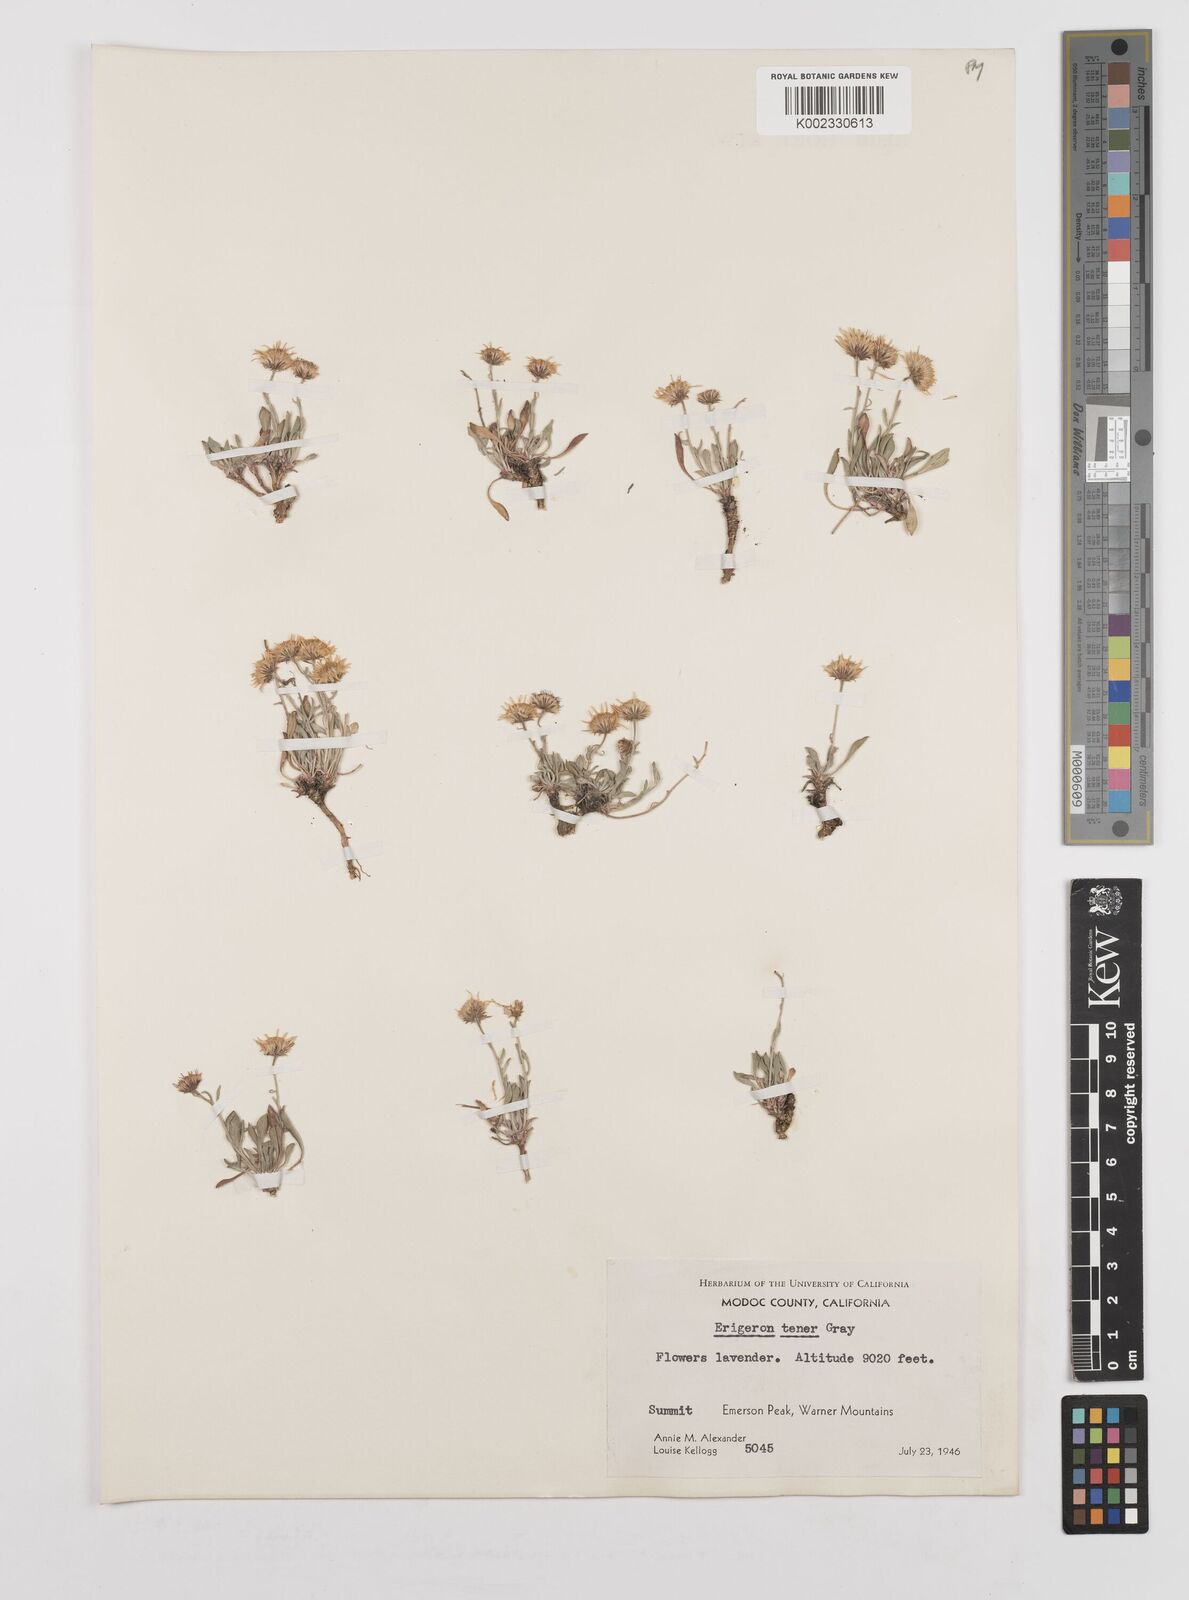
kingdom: Plantae
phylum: Tracheophyta
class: Magnoliopsida
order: Asterales
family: Asteraceae
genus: Erigeron
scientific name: Erigeron tener
